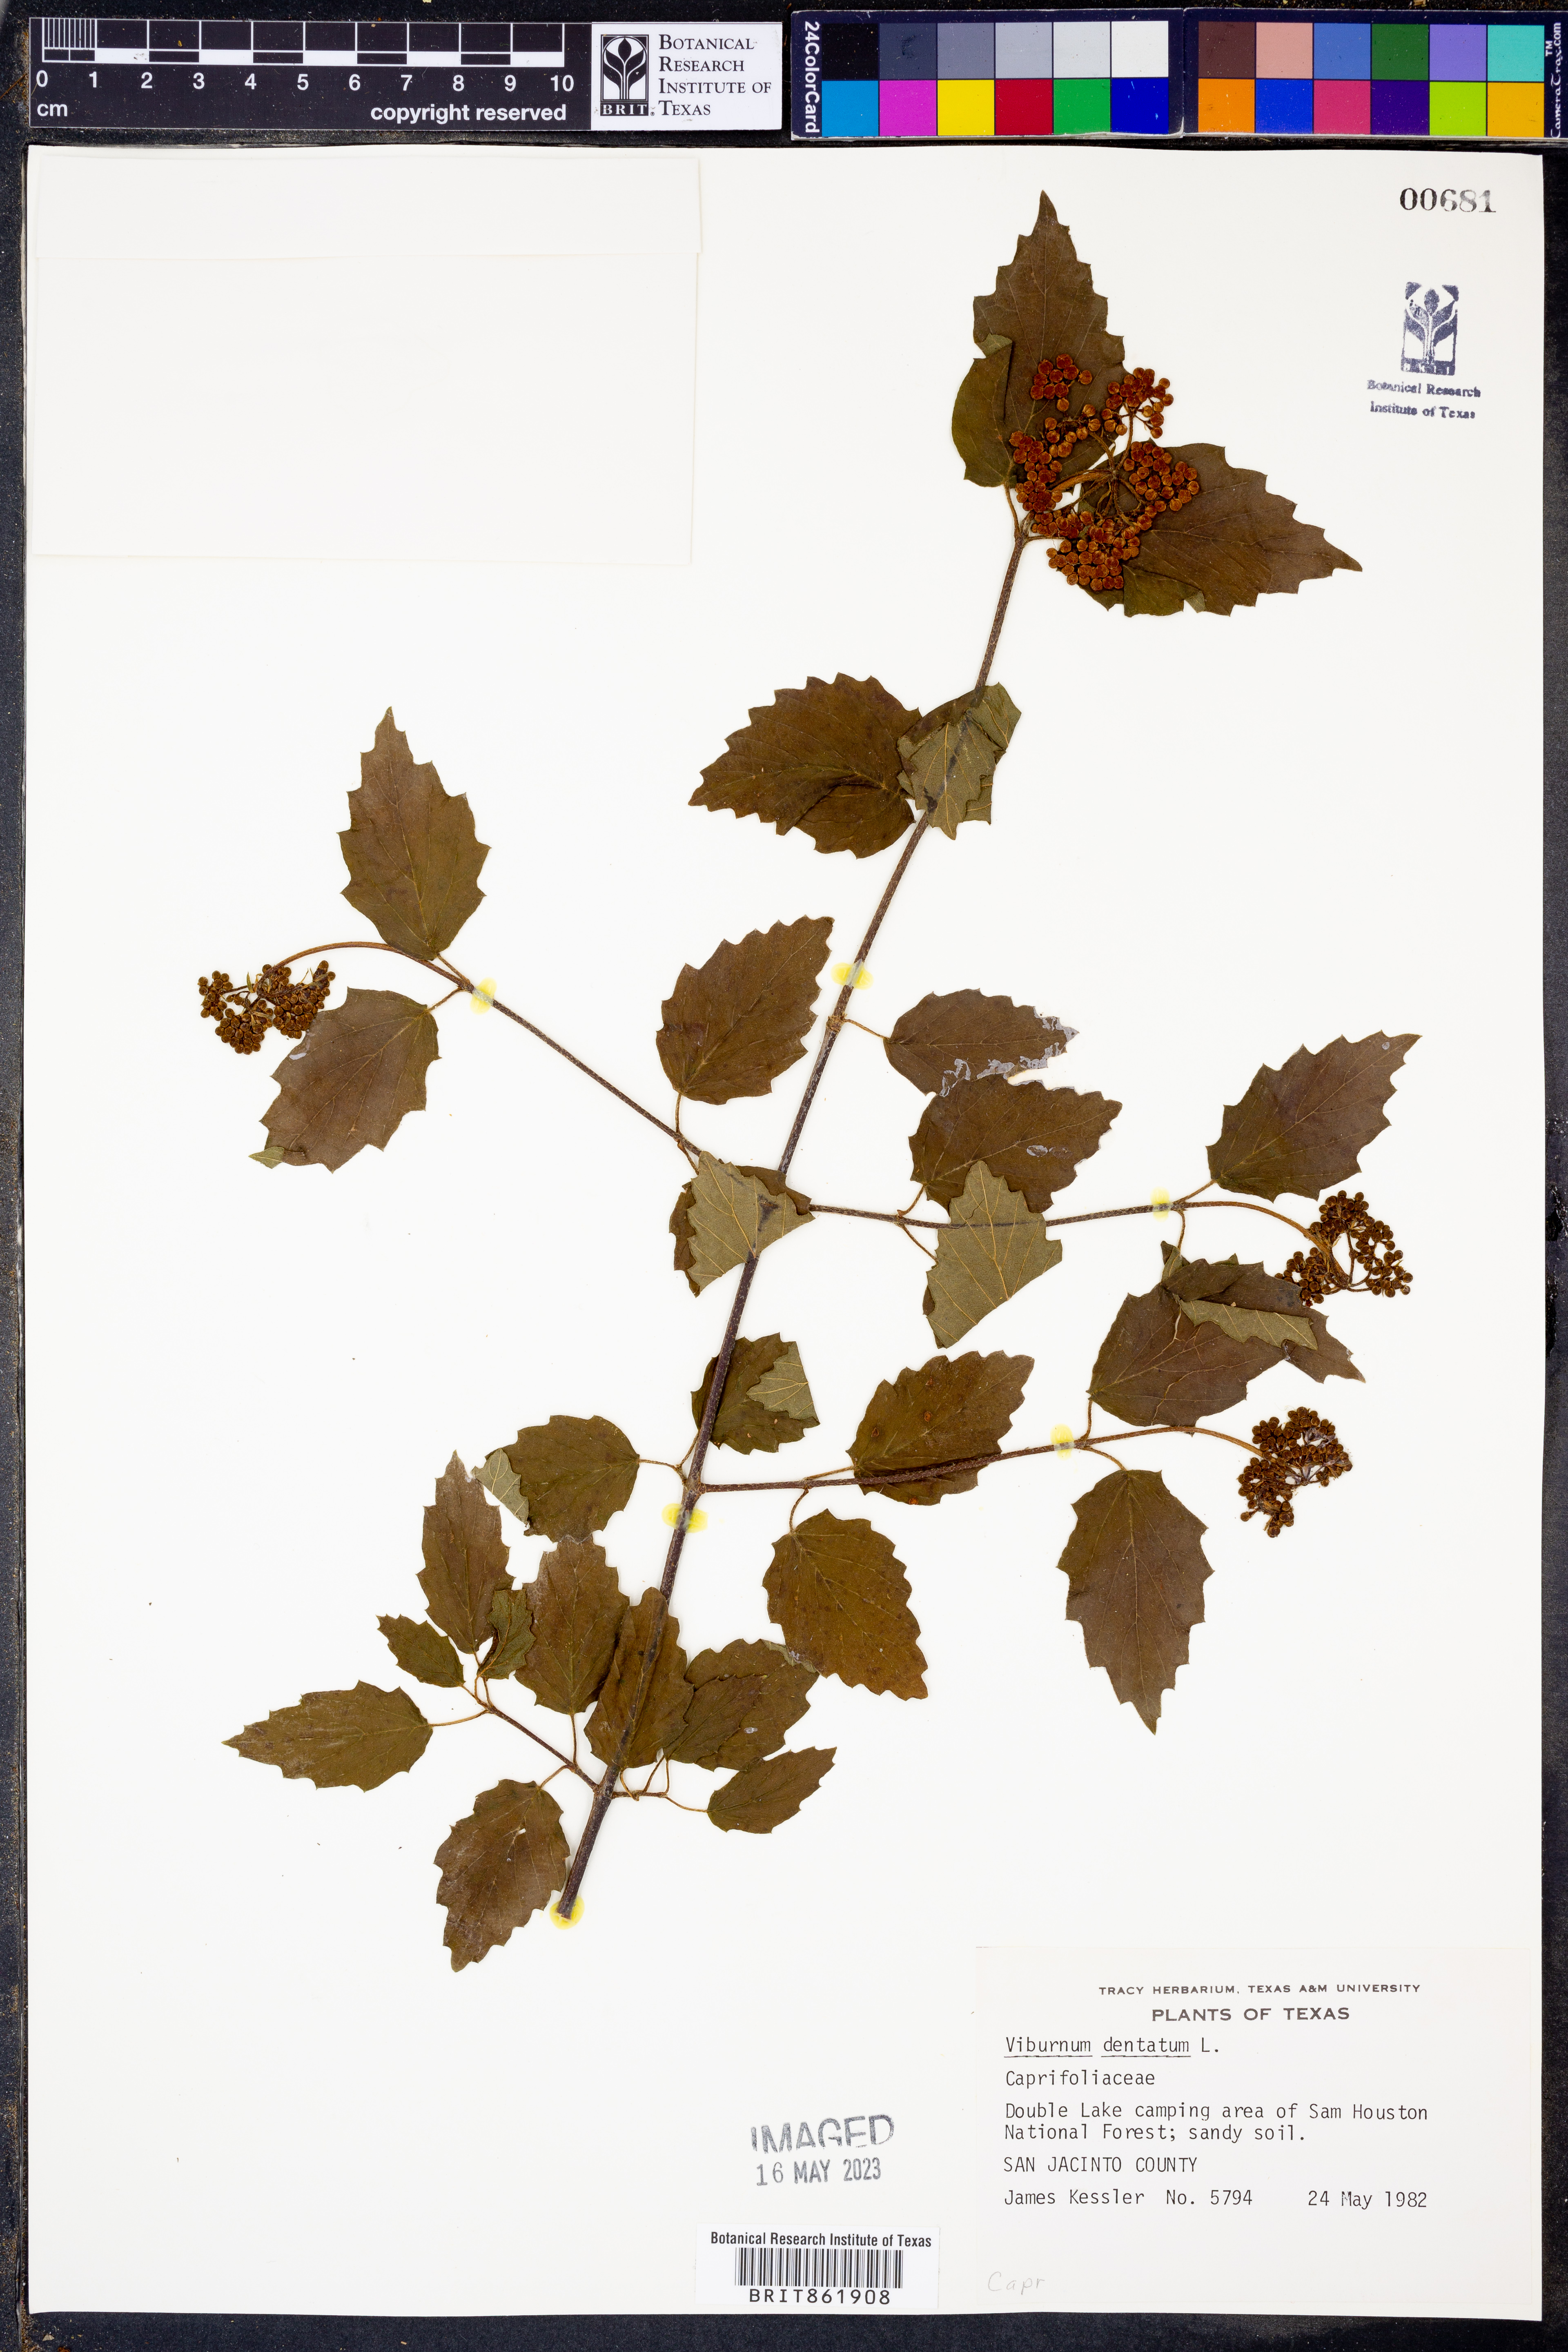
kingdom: Plantae
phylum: Tracheophyta
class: Magnoliopsida
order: Dipsacales
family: Viburnaceae
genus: Viburnum
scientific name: Viburnum dentatum
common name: Arrow-wood
